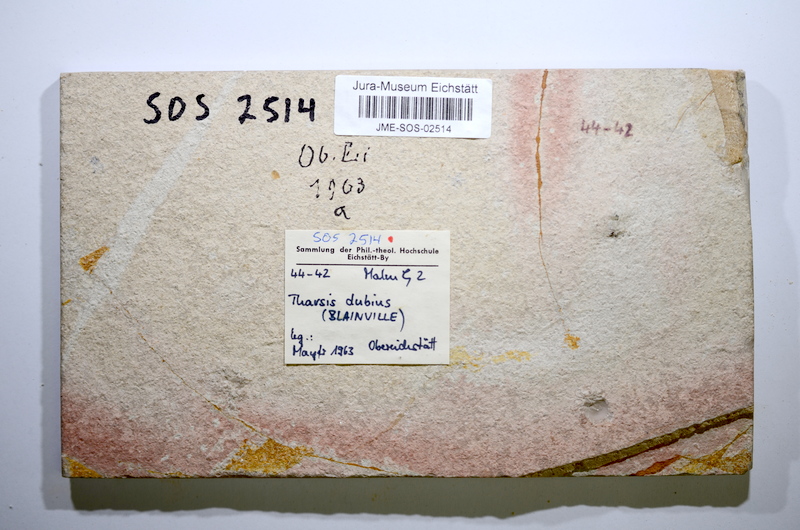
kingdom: Animalia
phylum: Chordata
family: Ascalaboidae
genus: Tharsis
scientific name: Tharsis dubius
